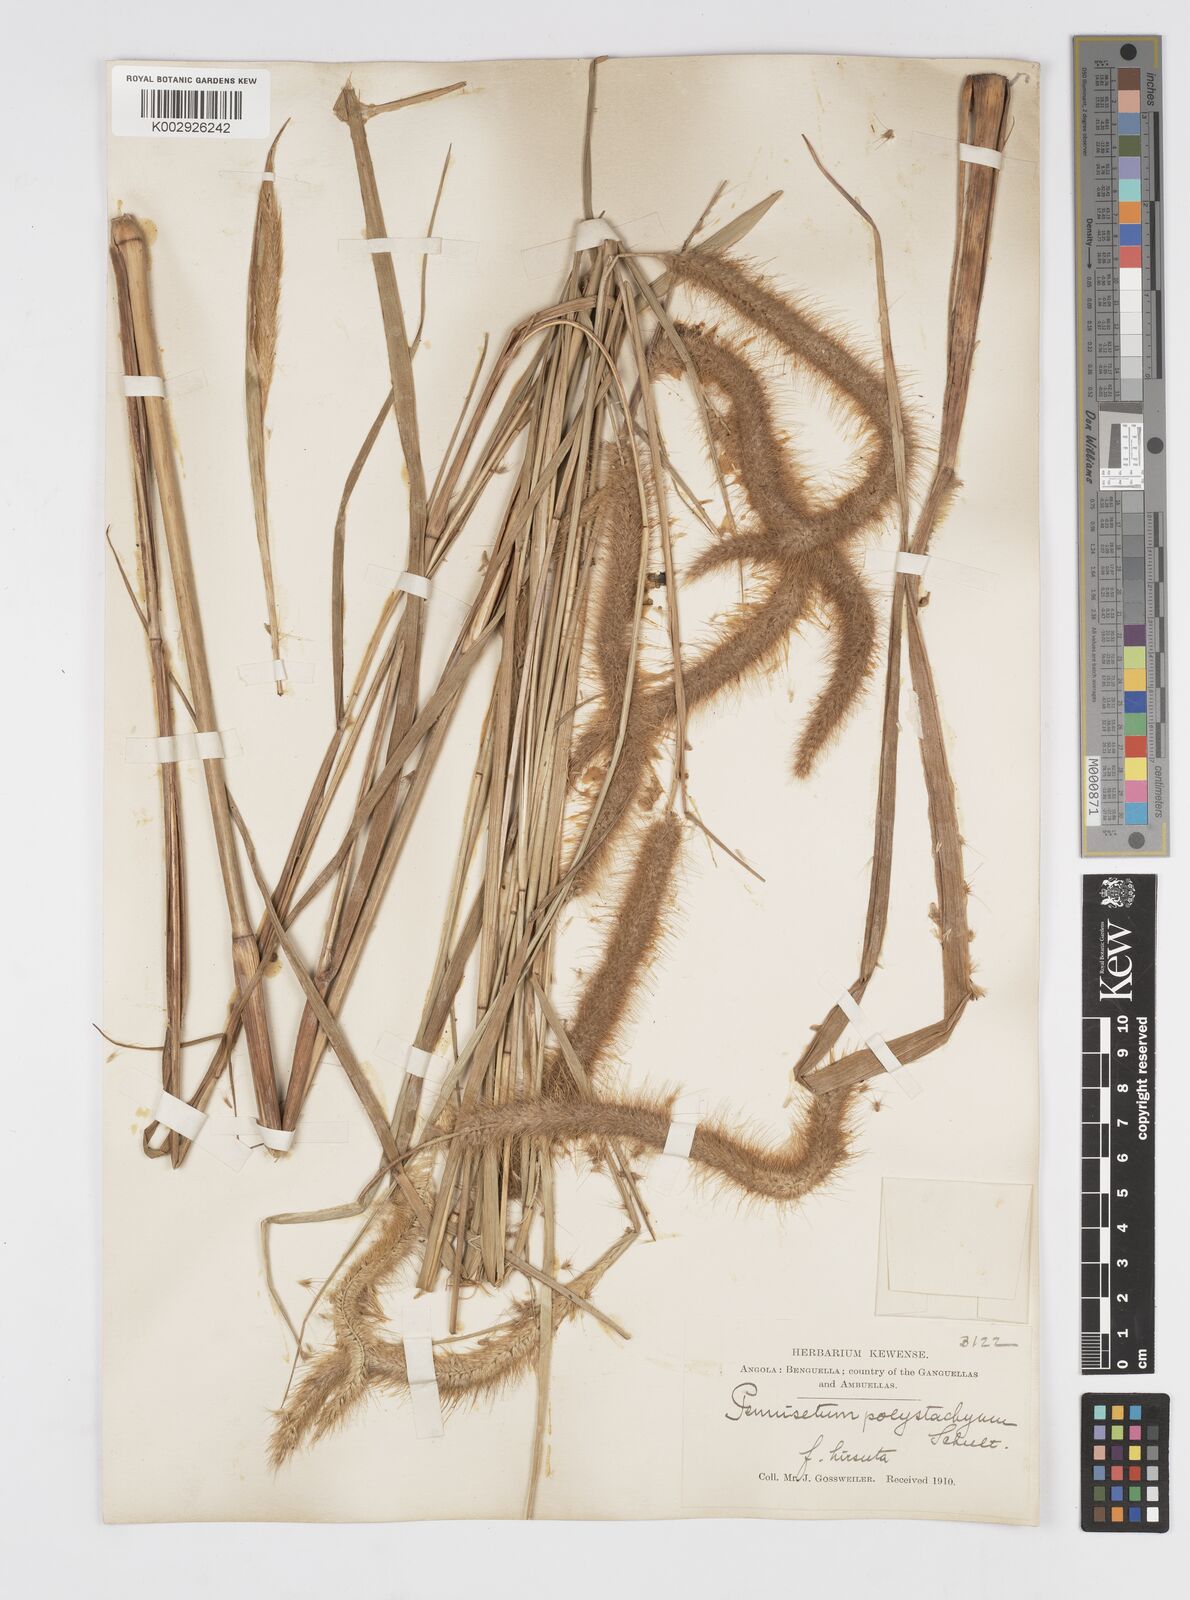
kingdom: Plantae
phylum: Tracheophyta
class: Liliopsida
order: Poales
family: Poaceae
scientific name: Poaceae
